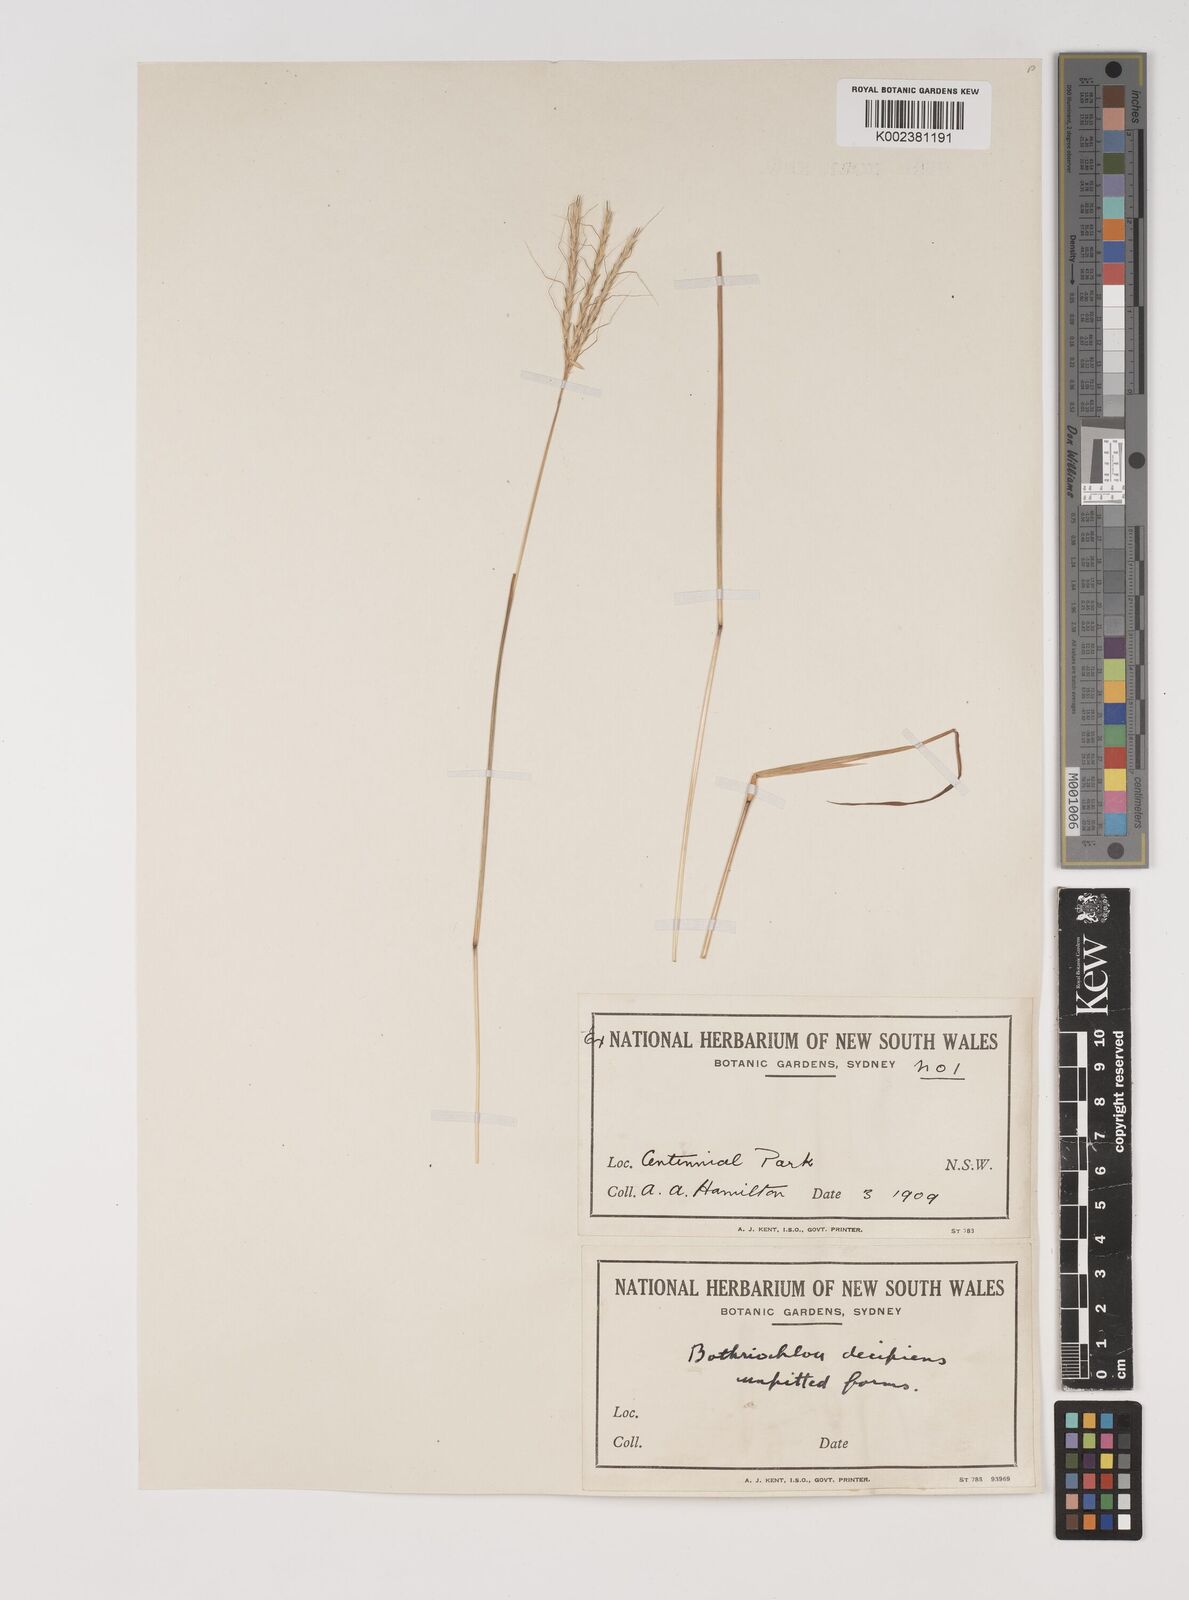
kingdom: Plantae
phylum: Tracheophyta
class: Liliopsida
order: Poales
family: Poaceae
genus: Bothriochloa
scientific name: Bothriochloa macra
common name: Pitted beard grass
